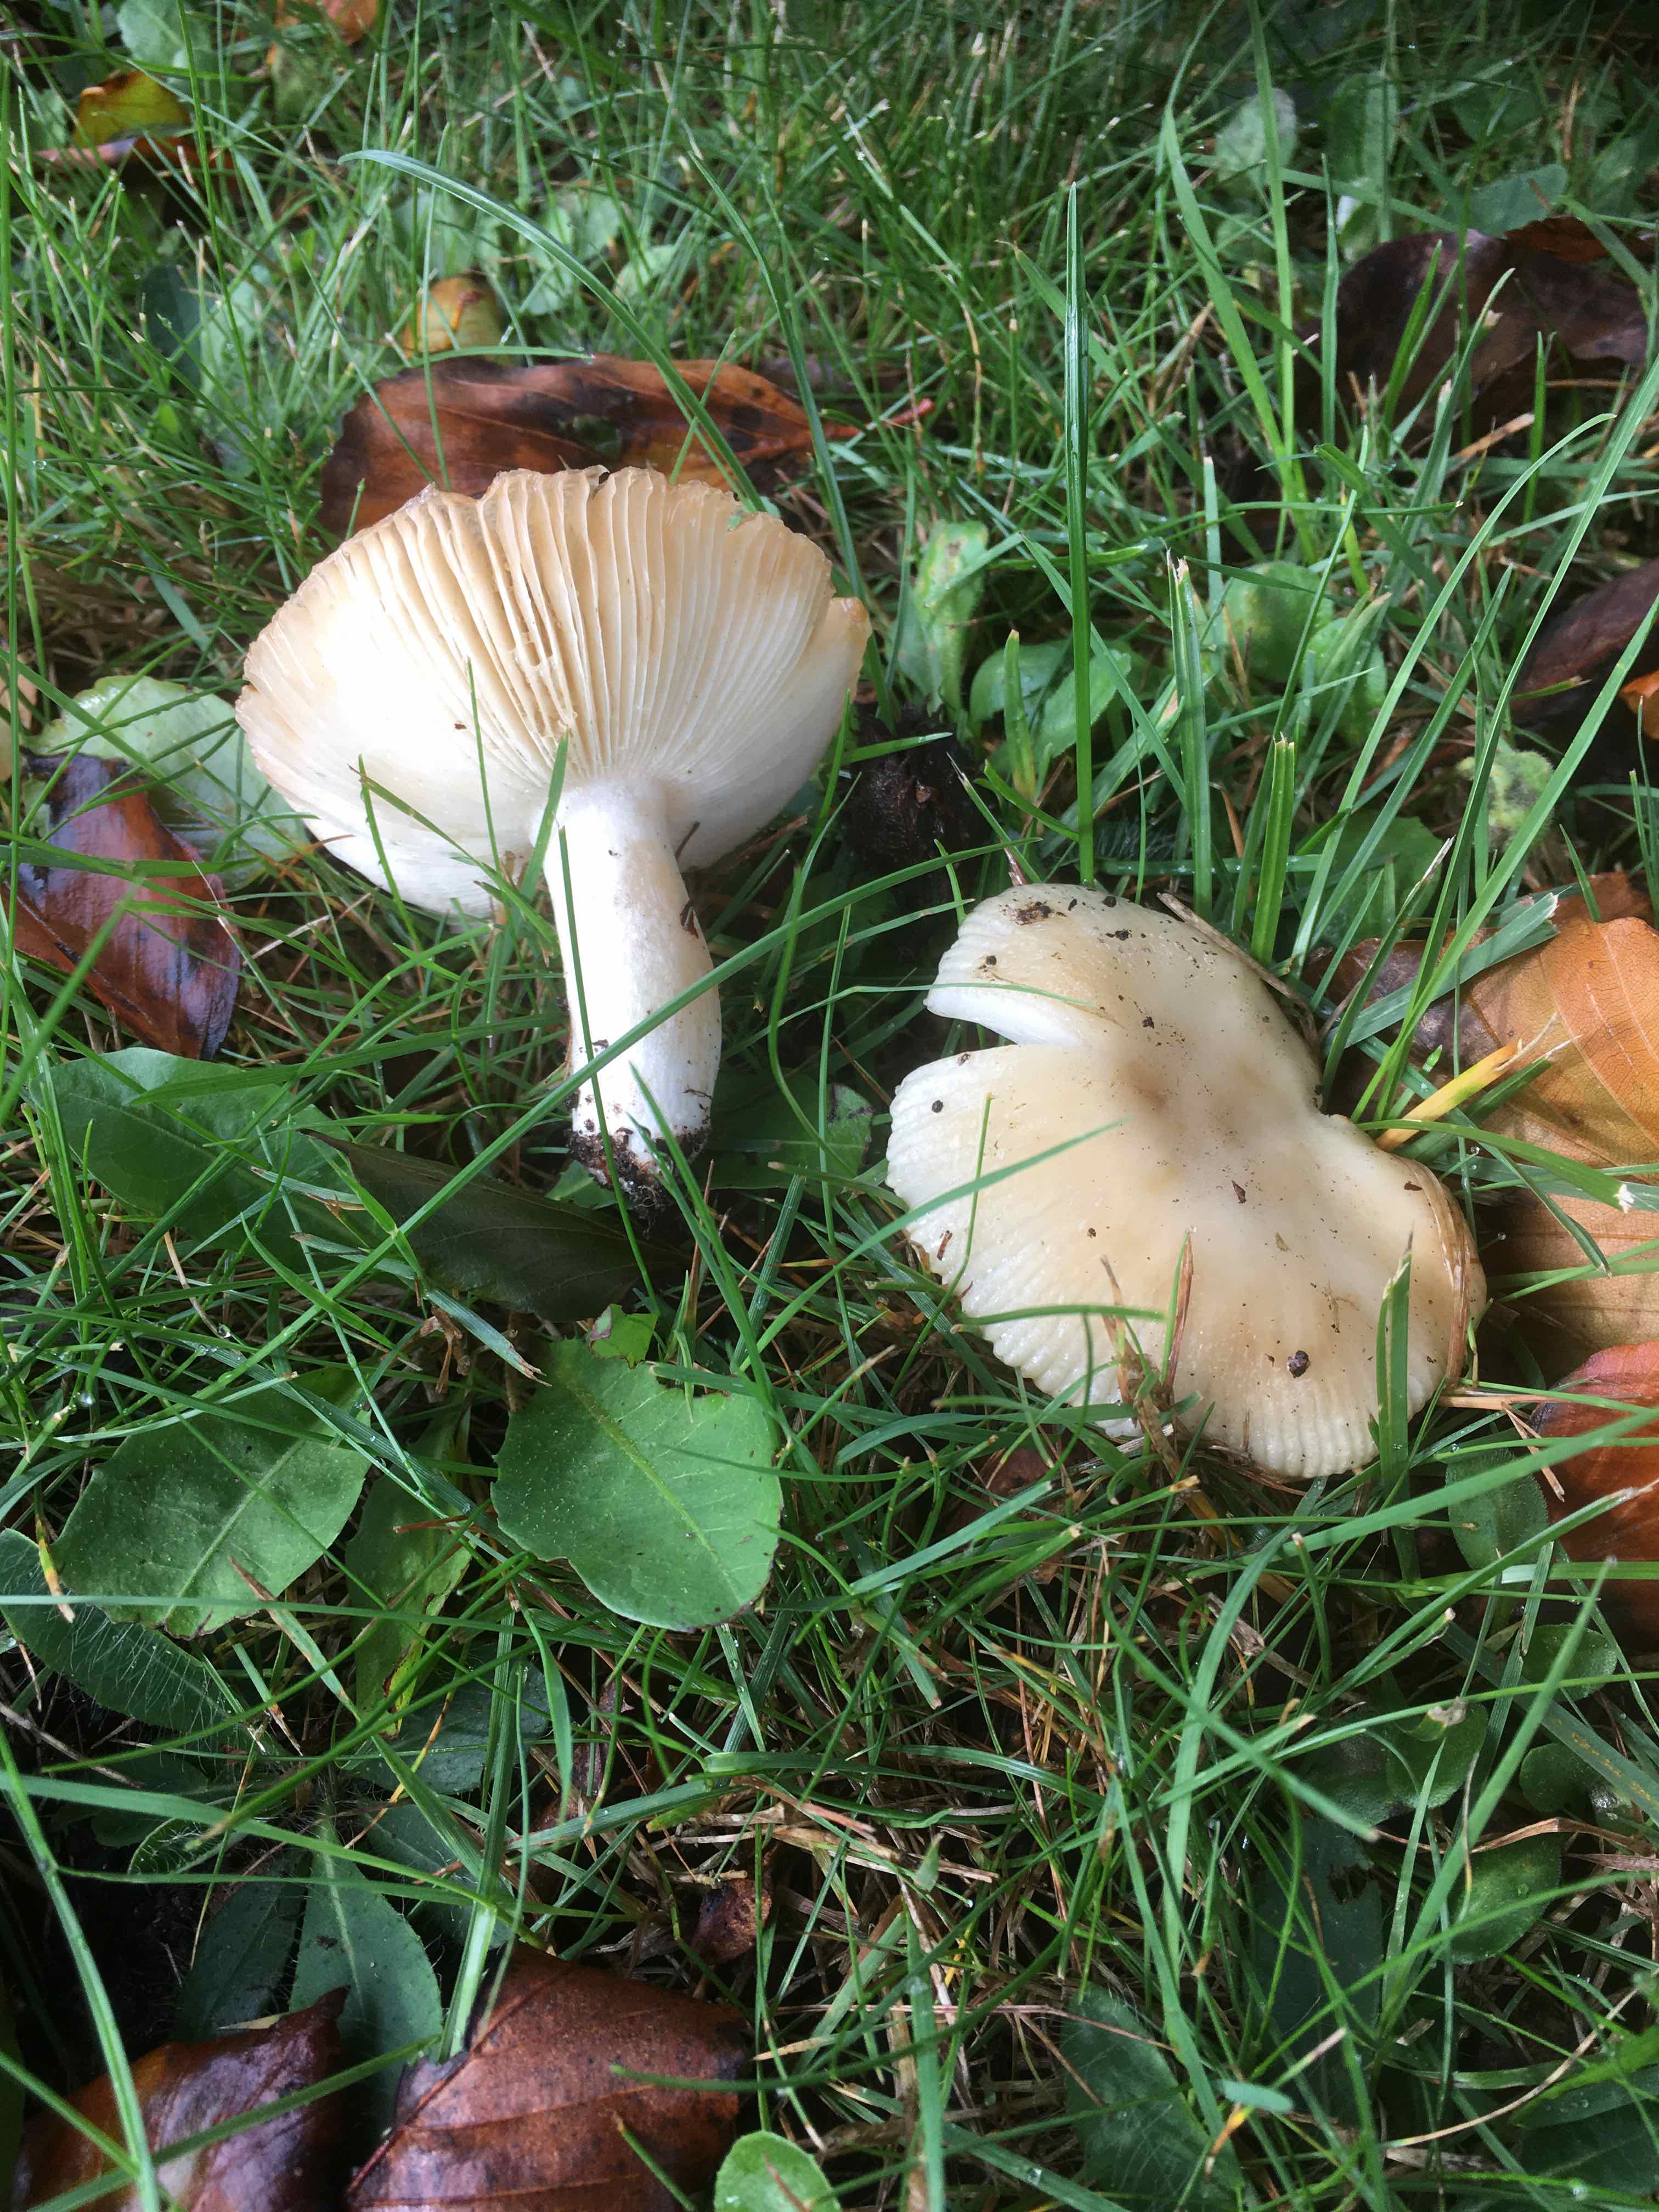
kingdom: Fungi
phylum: Basidiomycota
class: Agaricomycetes
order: Russulales
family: Russulaceae
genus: Russula
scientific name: Russula
